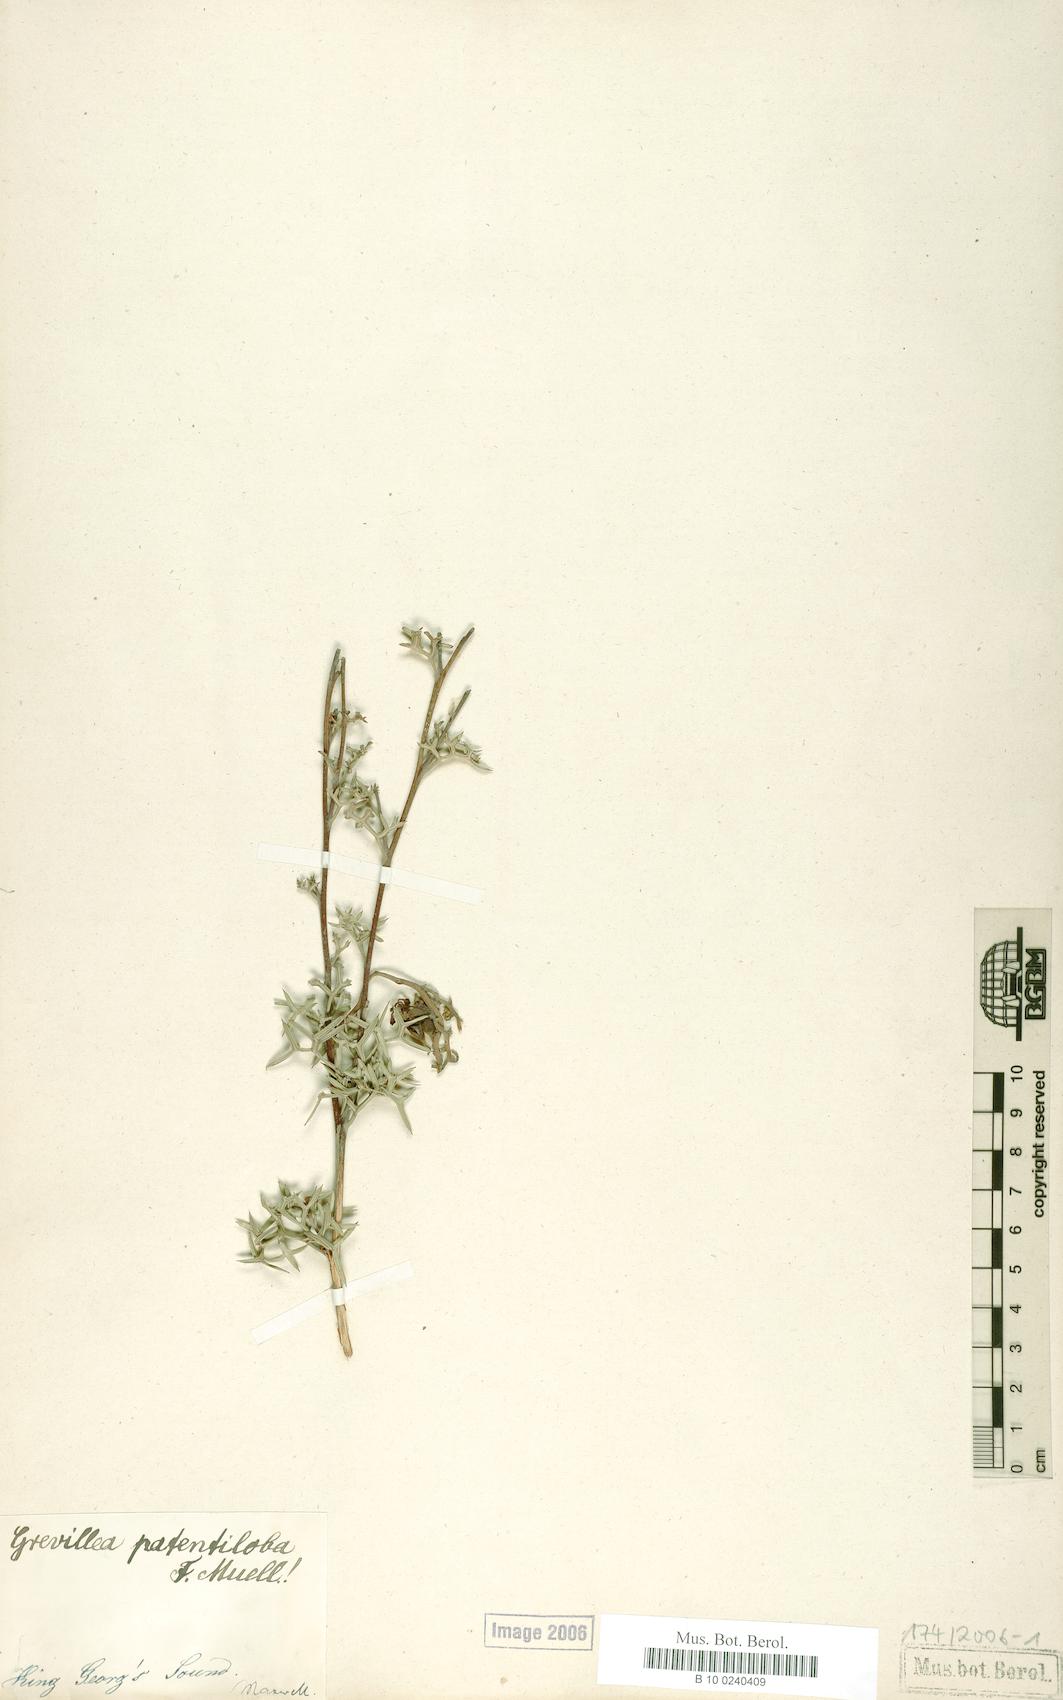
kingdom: Plantae
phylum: Tracheophyta
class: Magnoliopsida
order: Proteales
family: Proteaceae
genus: Grevillea
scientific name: Grevillea patentiloba
